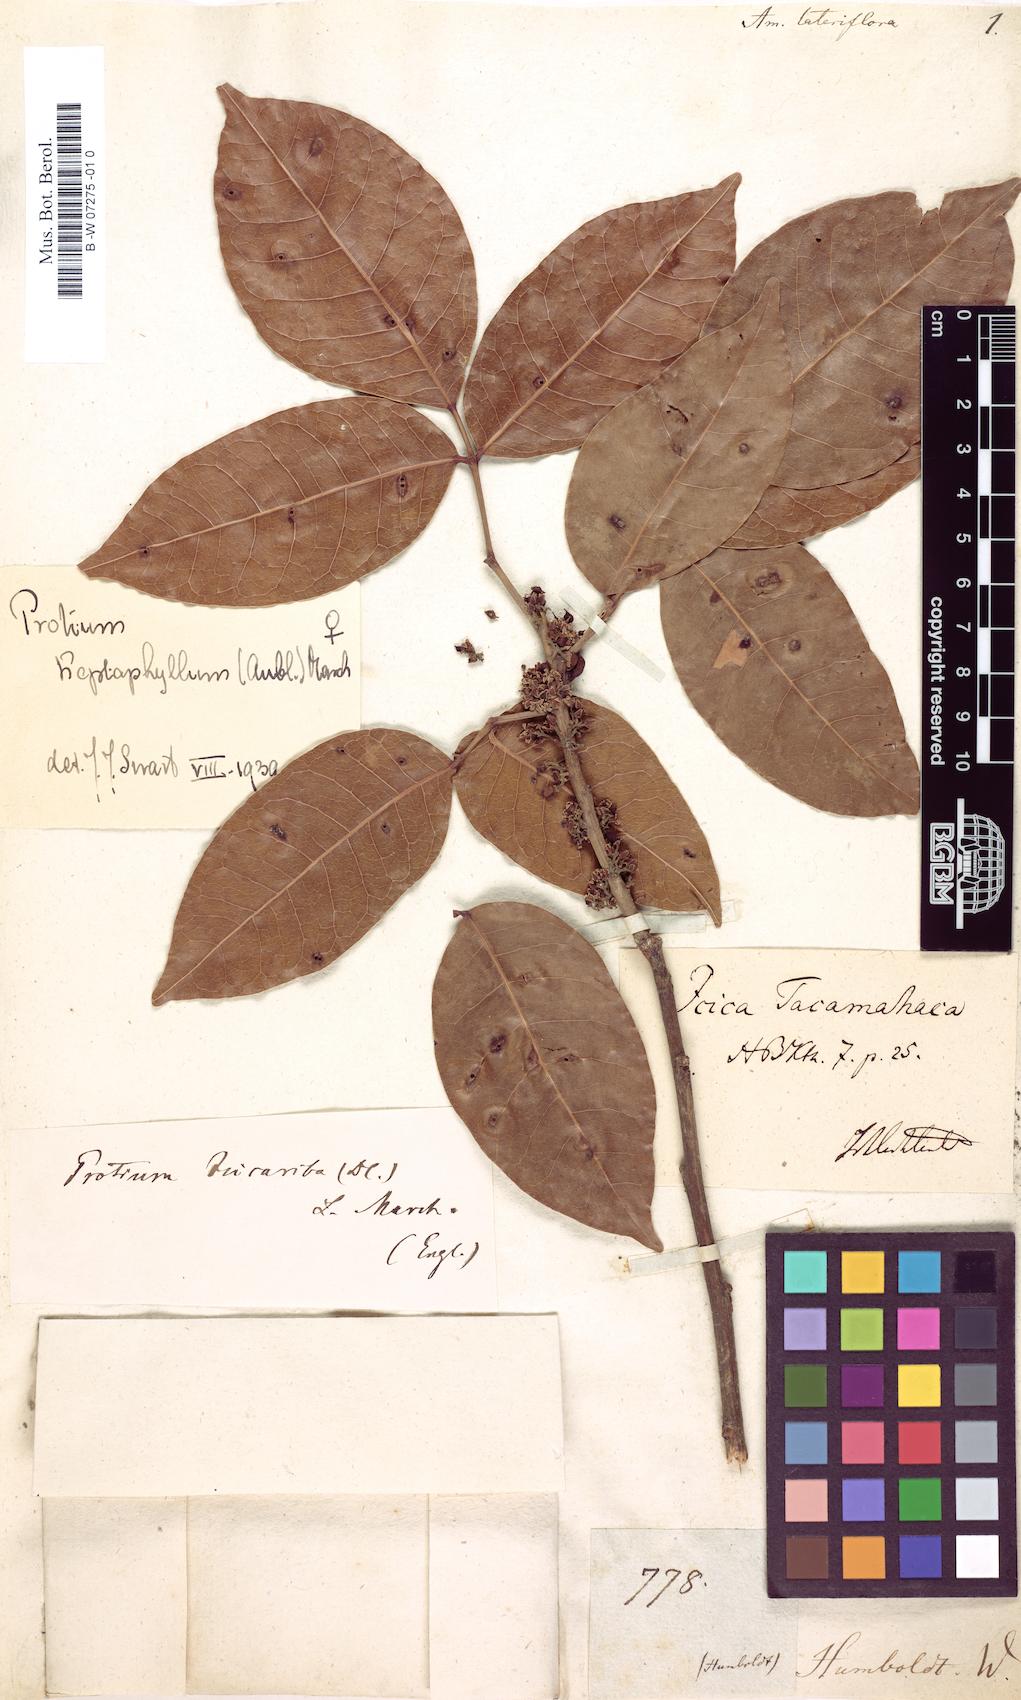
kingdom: Plantae
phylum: Tracheophyta
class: Magnoliopsida
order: Sapindales
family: Rutaceae
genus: Amyris
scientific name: Amyris
